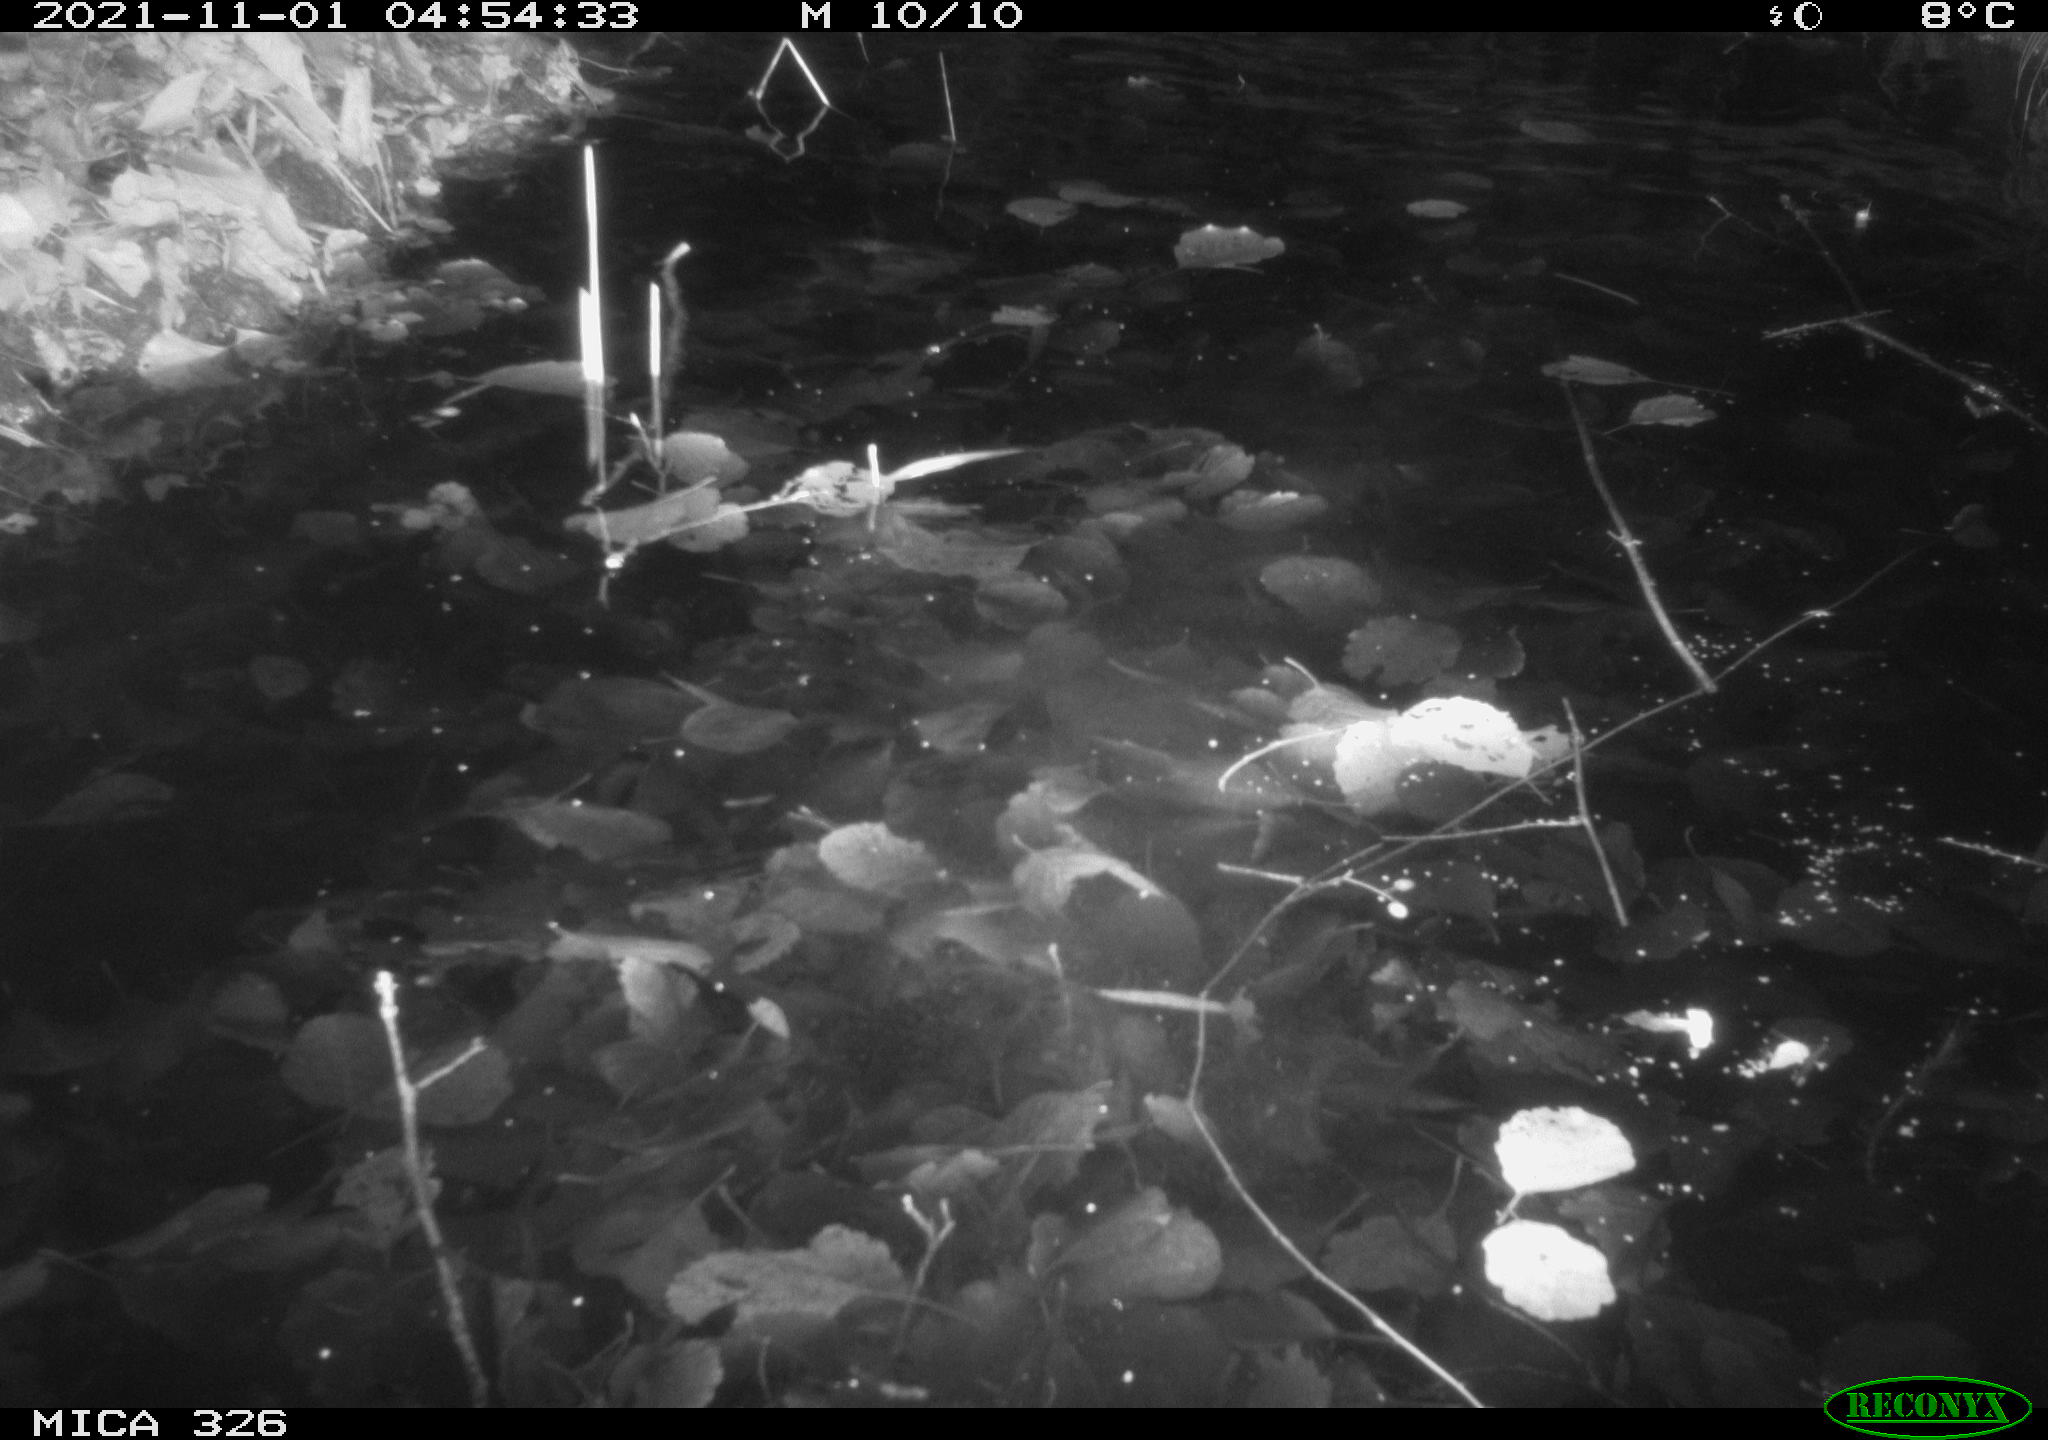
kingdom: Animalia
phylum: Chordata
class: Mammalia
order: Rodentia
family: Cricetidae
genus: Ondatra
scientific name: Ondatra zibethicus
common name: Muskrat
